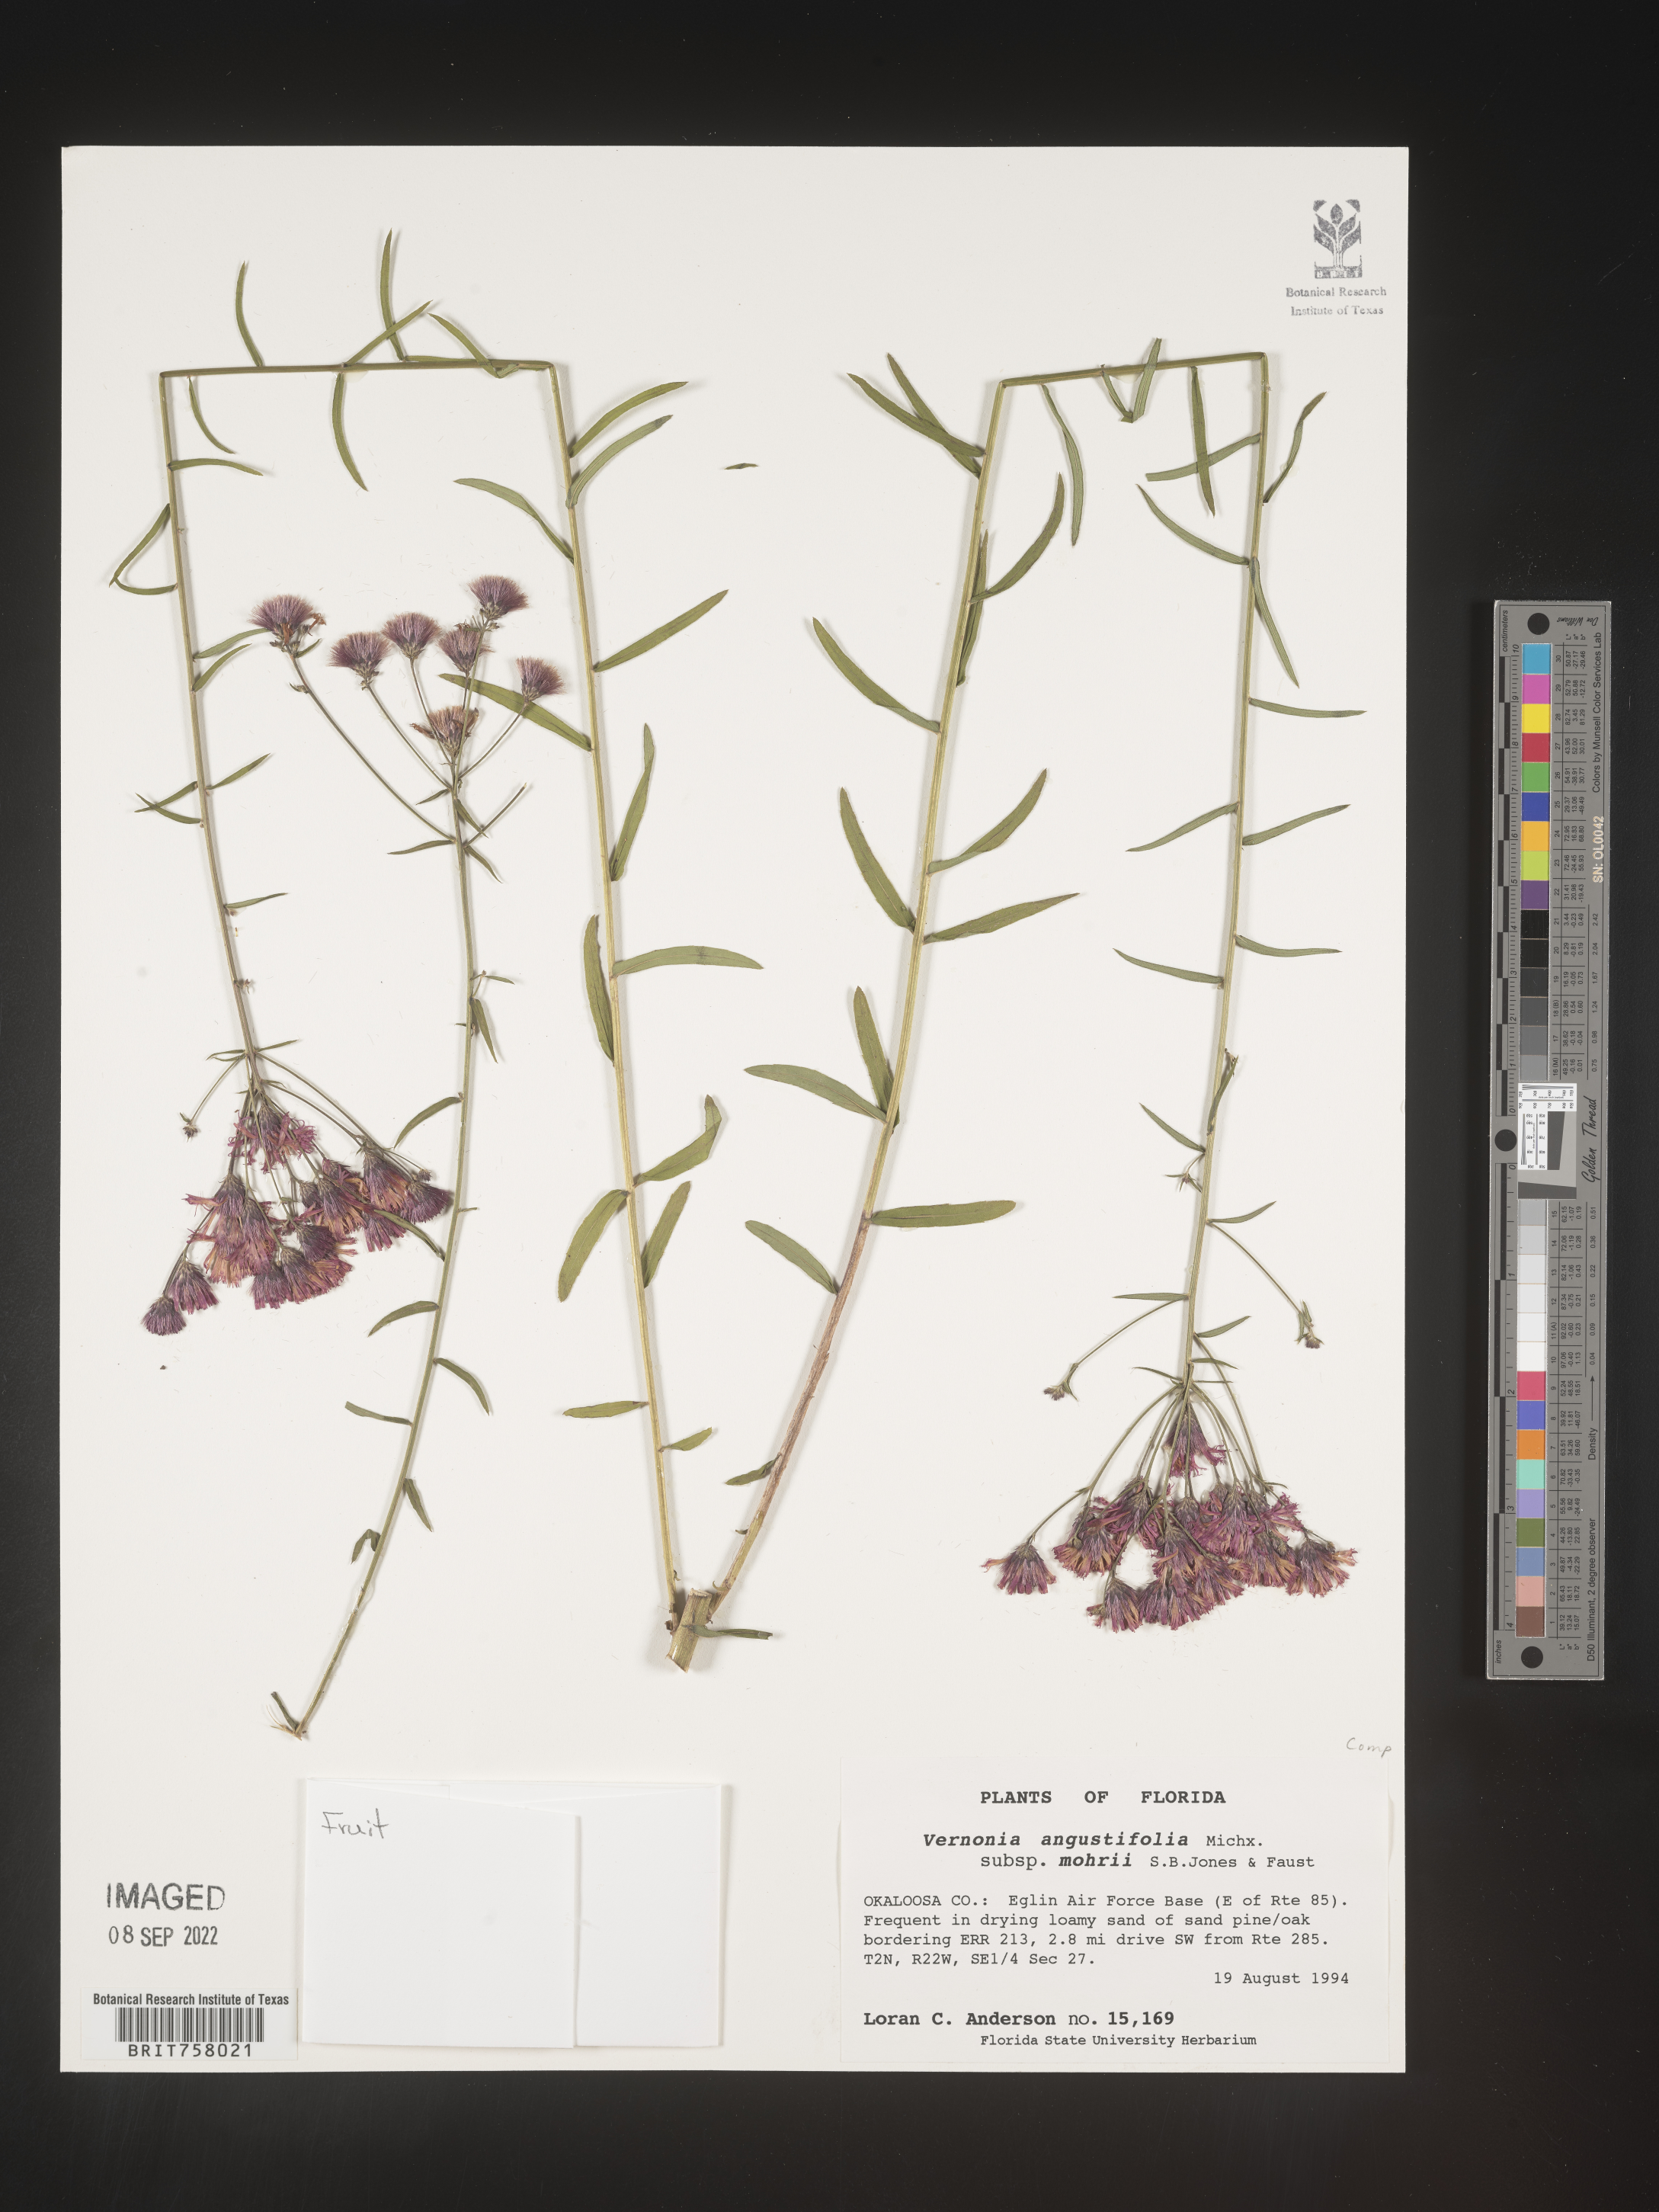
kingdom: Plantae
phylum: Tracheophyta
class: Magnoliopsida
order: Asterales
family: Asteraceae
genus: Vernonia
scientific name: Vernonia angustifolia
